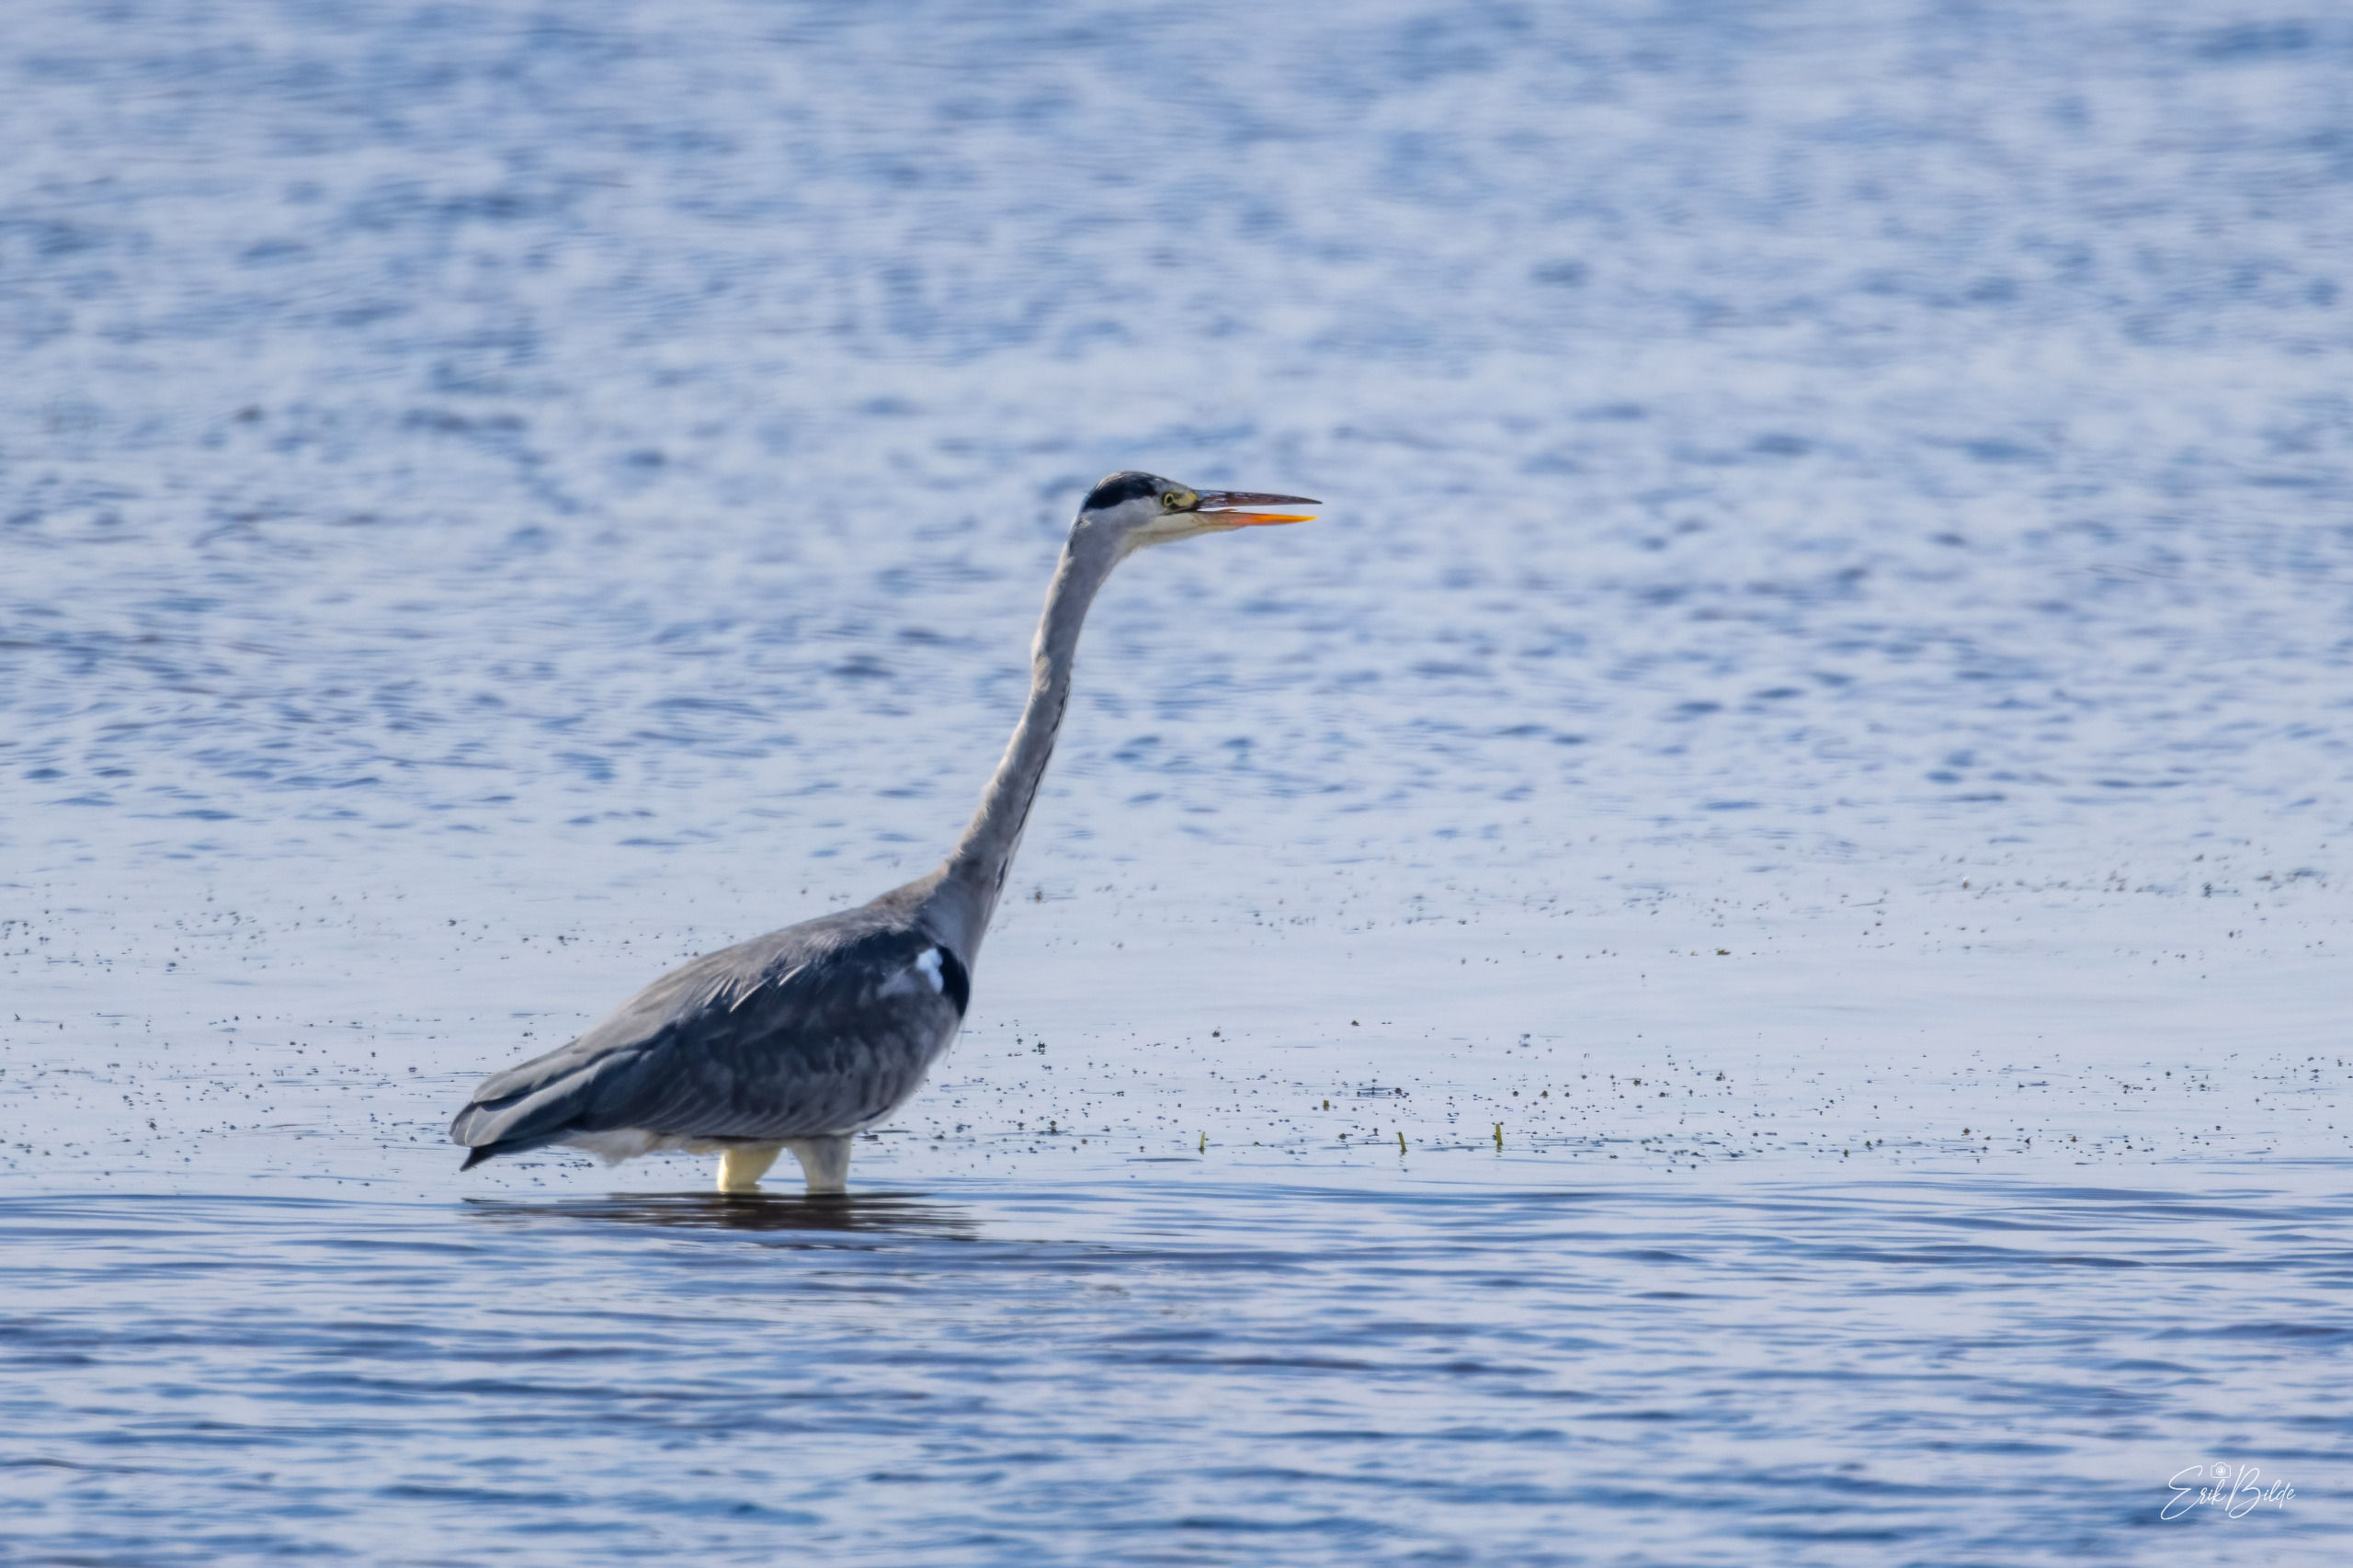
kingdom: Animalia
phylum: Chordata
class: Aves
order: Pelecaniformes
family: Ardeidae
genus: Ardea
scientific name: Ardea cinerea
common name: Fiskehejre
